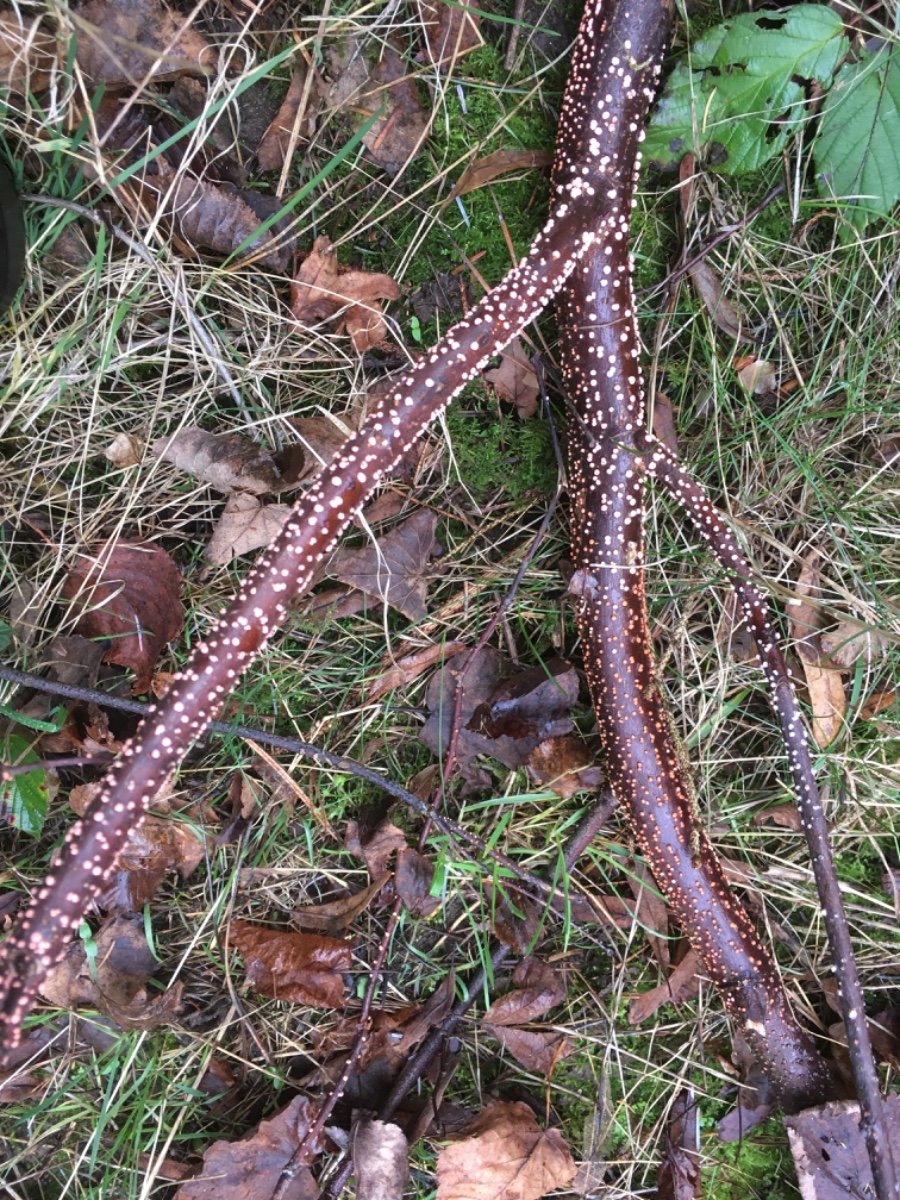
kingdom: Fungi
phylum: Ascomycota
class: Sordariomycetes
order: Hypocreales
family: Nectriaceae
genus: Nectria
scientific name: Nectria cinnabarina
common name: almindelig cinnobersvamp
